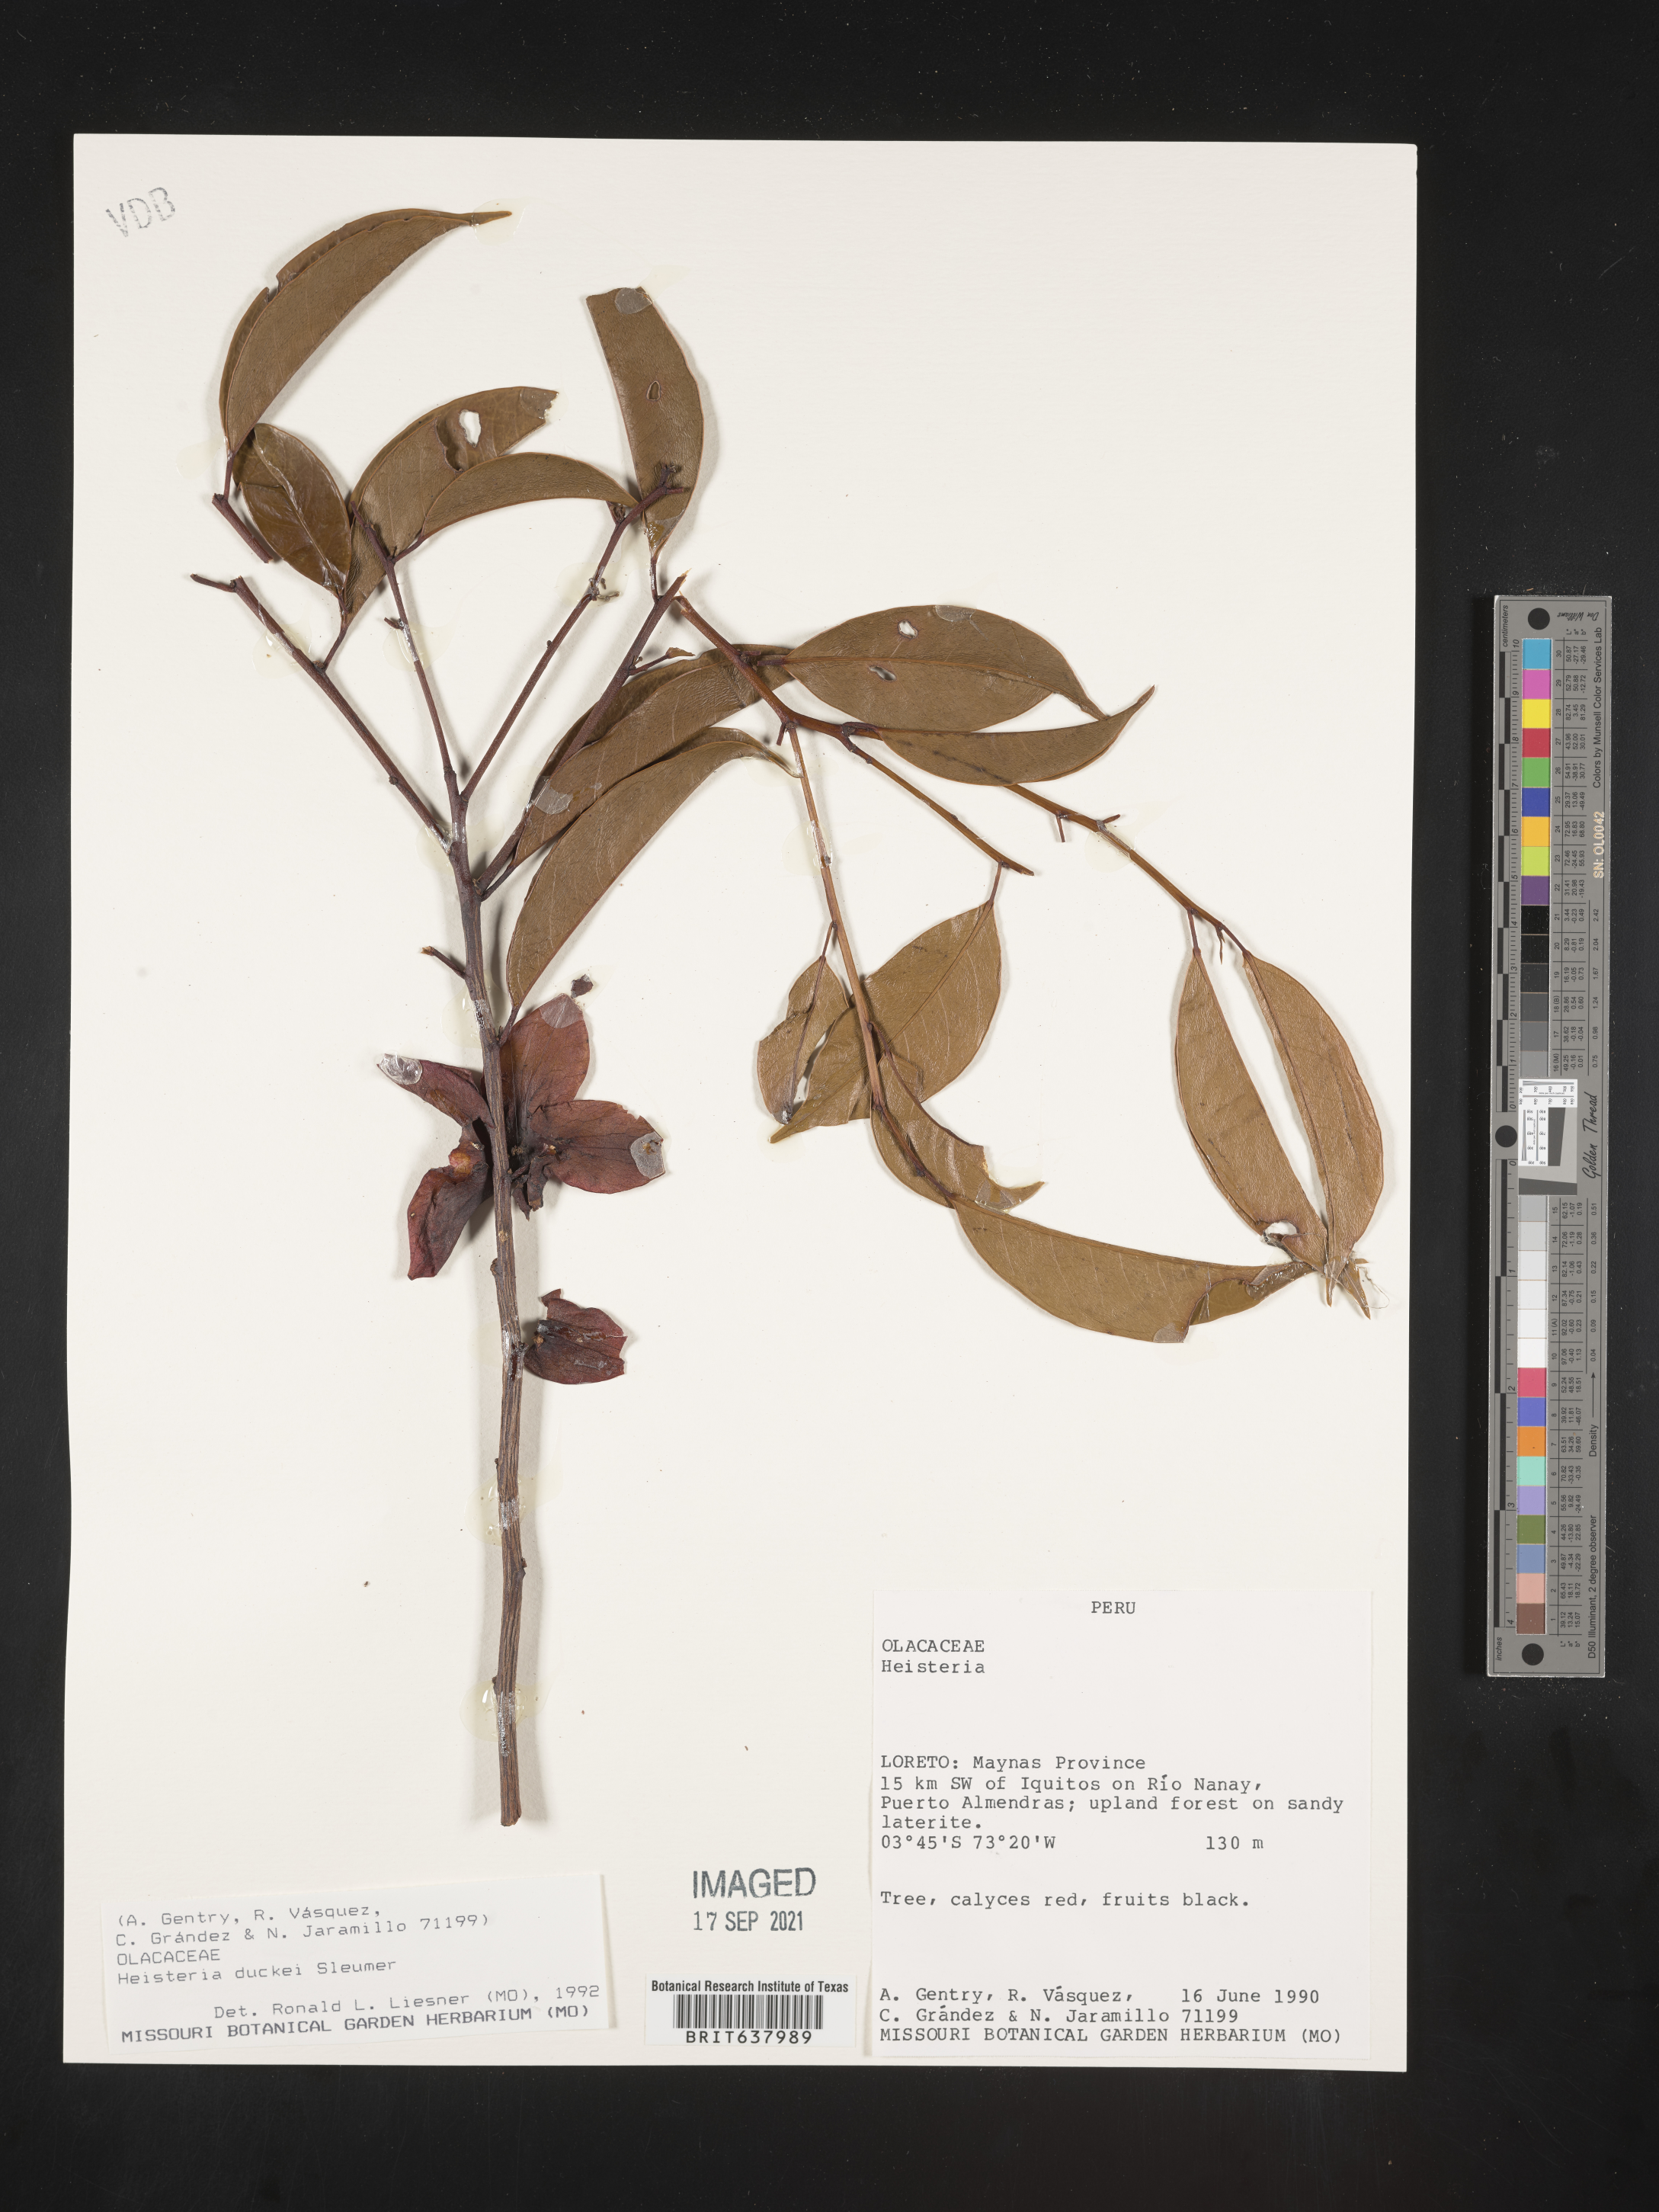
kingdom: Plantae
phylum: Tracheophyta
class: Magnoliopsida
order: Santalales
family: Erythropalaceae
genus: Heisteria
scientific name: Heisteria
